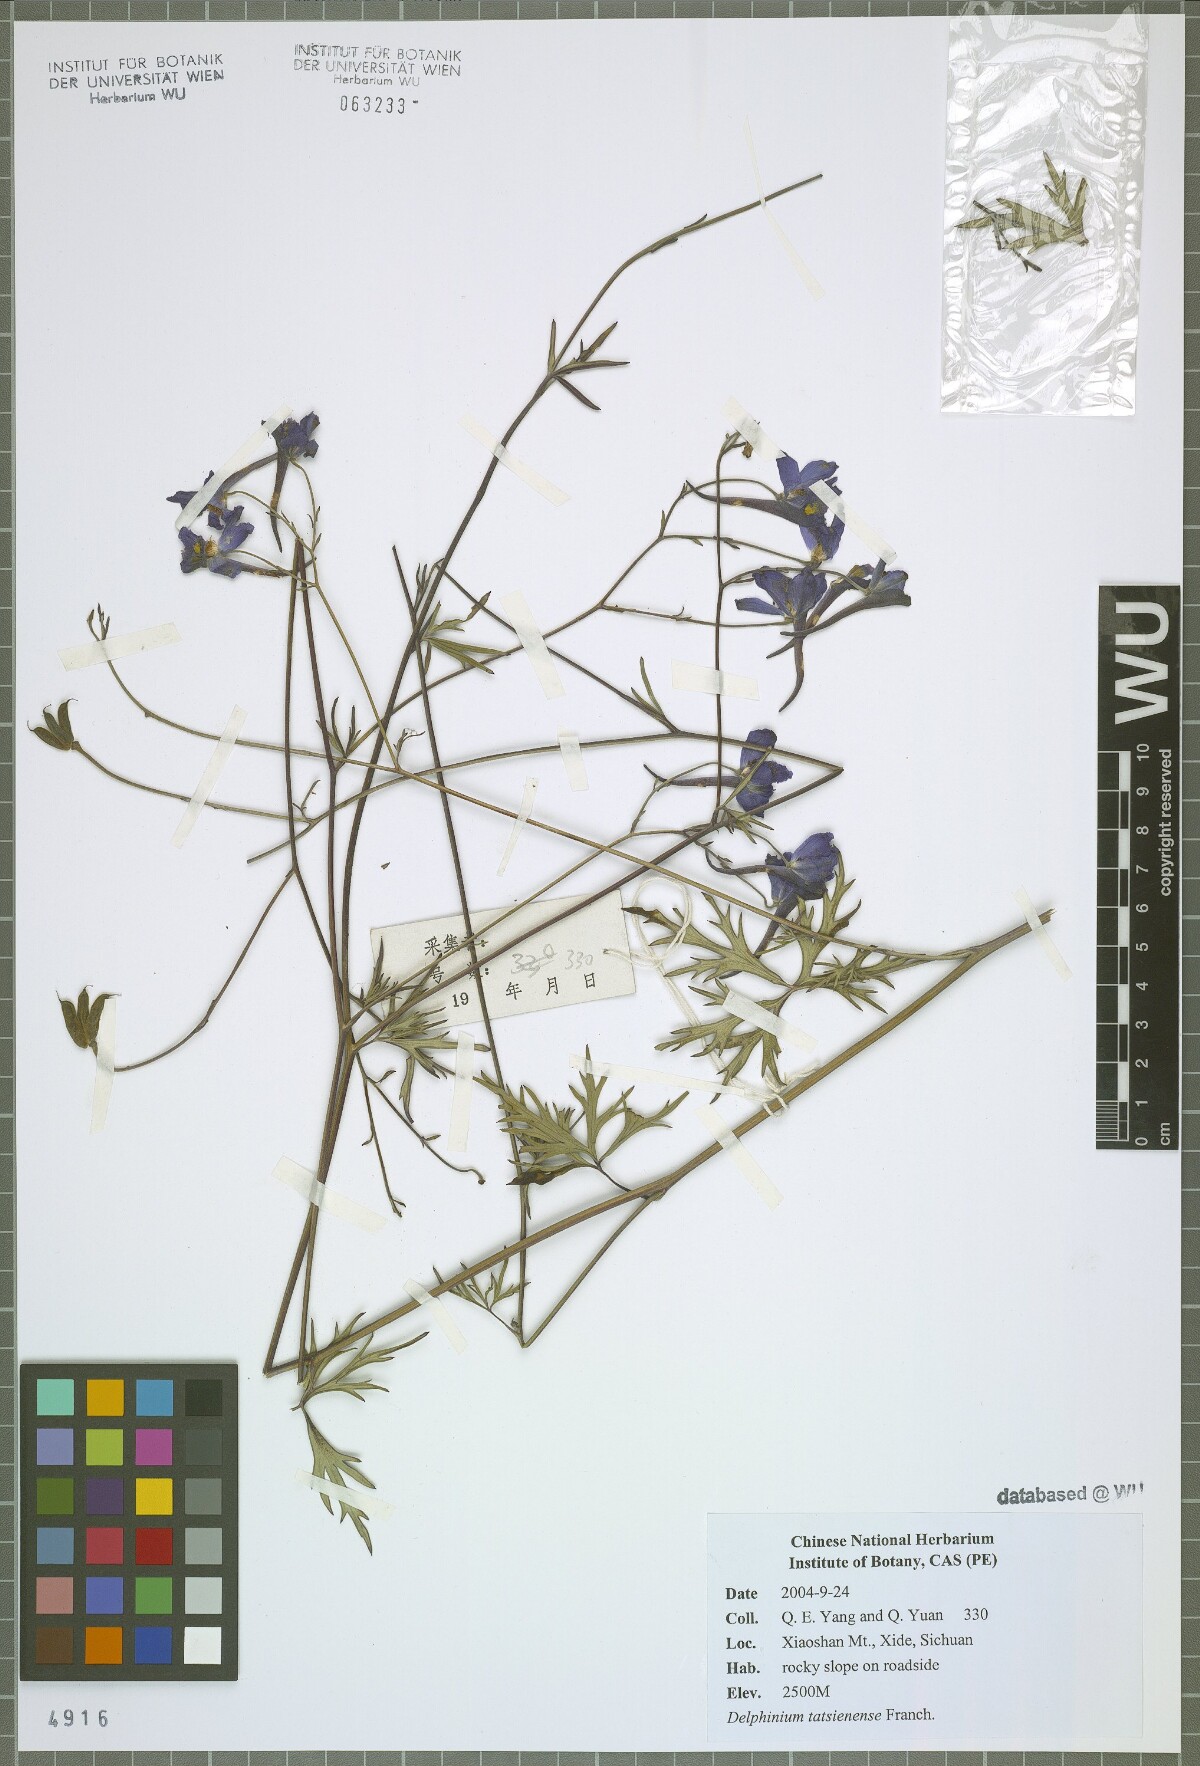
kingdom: Plantae
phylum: Tracheophyta
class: Magnoliopsida
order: Ranunculales
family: Ranunculaceae
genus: Delphinium
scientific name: Delphinium tatsienense
